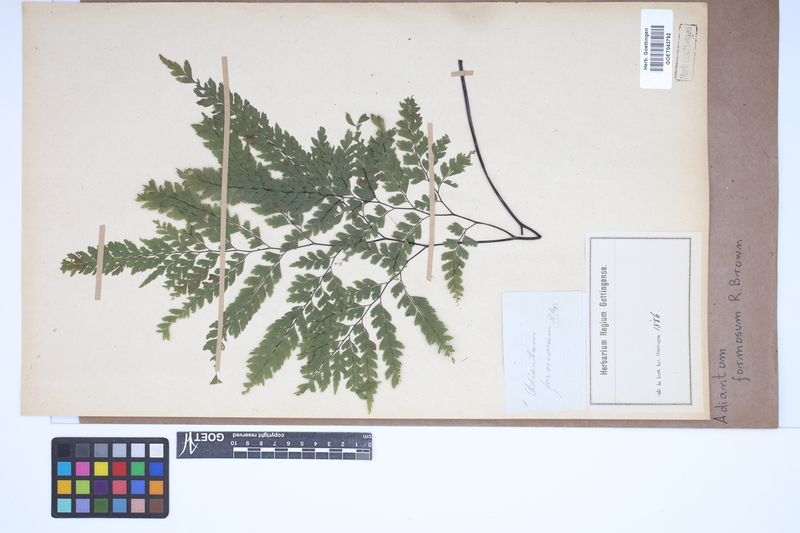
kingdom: Plantae
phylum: Tracheophyta
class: Polypodiopsida
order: Polypodiales
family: Pteridaceae
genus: Adiantum
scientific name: Adiantum formosum
